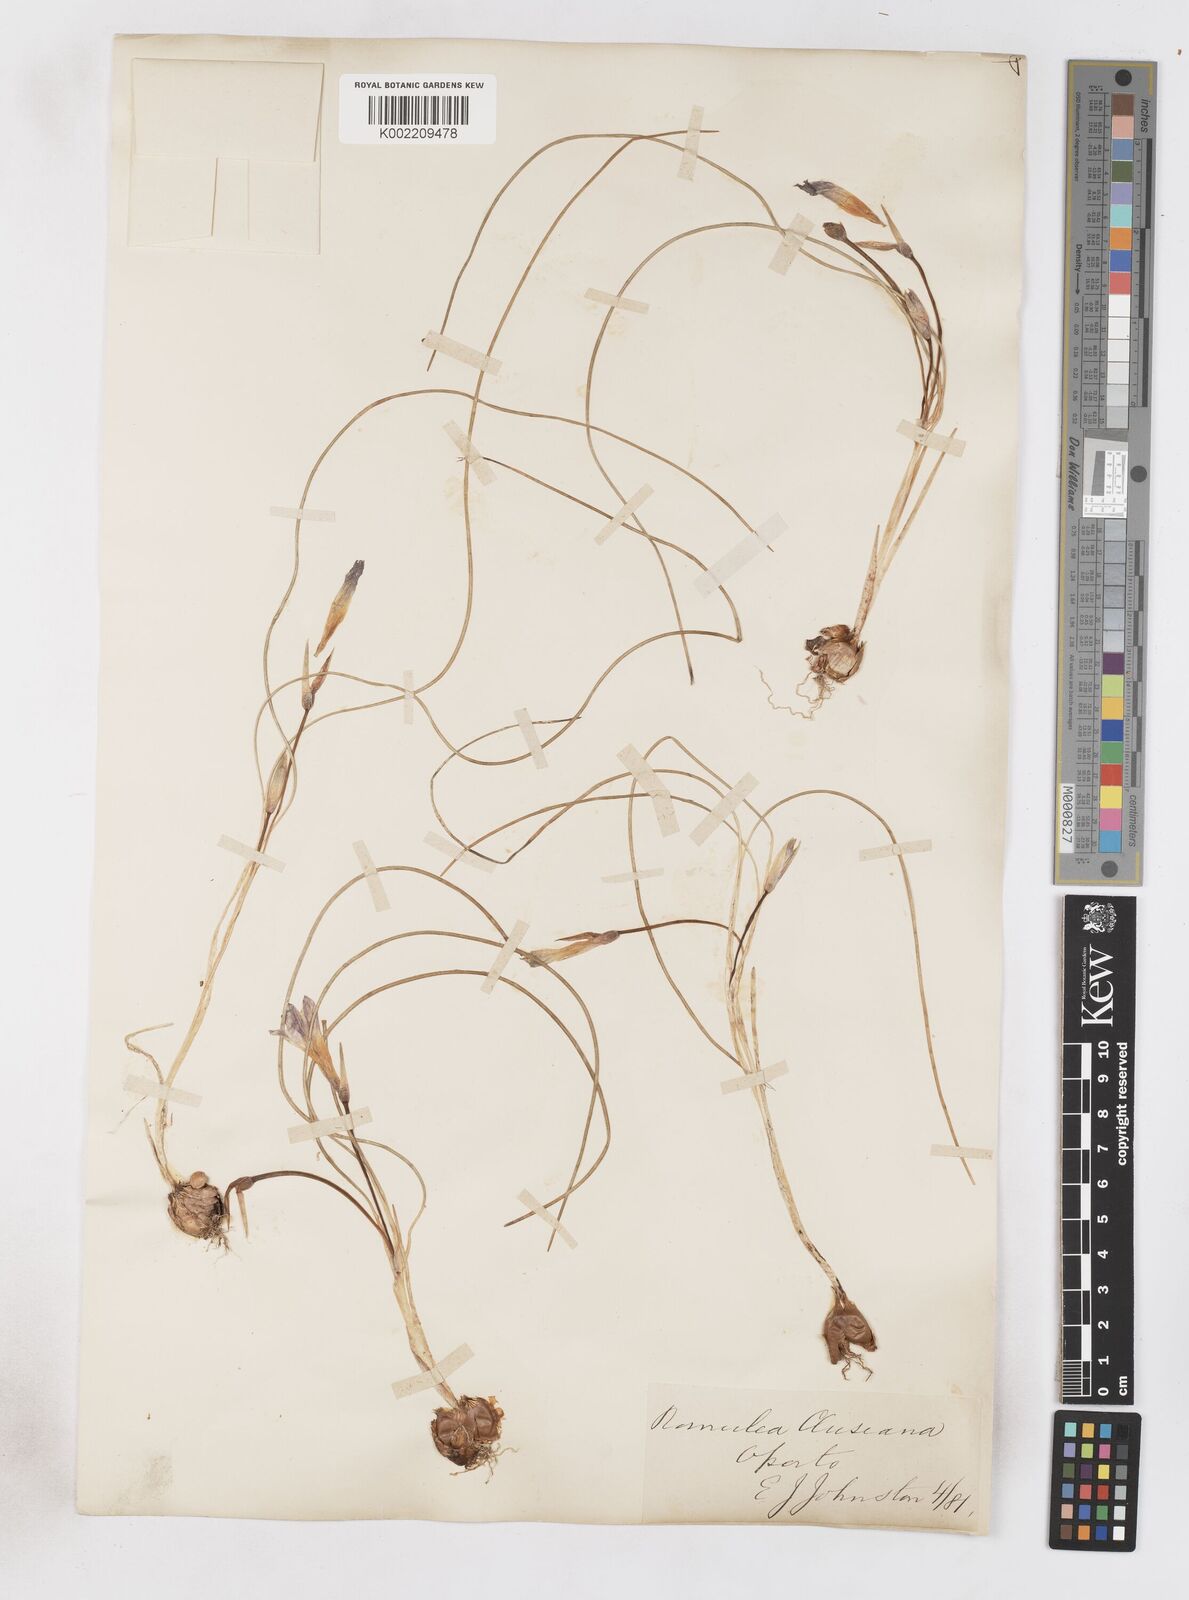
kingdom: Plantae
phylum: Tracheophyta
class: Liliopsida
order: Asparagales
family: Iridaceae
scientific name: Iridaceae
